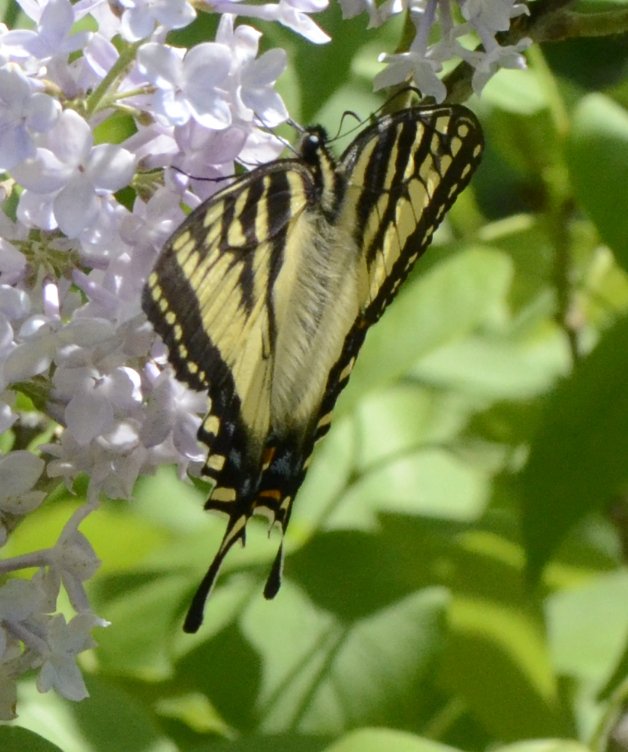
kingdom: Animalia
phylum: Arthropoda
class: Insecta
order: Lepidoptera
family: Papilionidae
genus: Pterourus
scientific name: Pterourus canadensis
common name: Canadian Tiger Swallowtail
